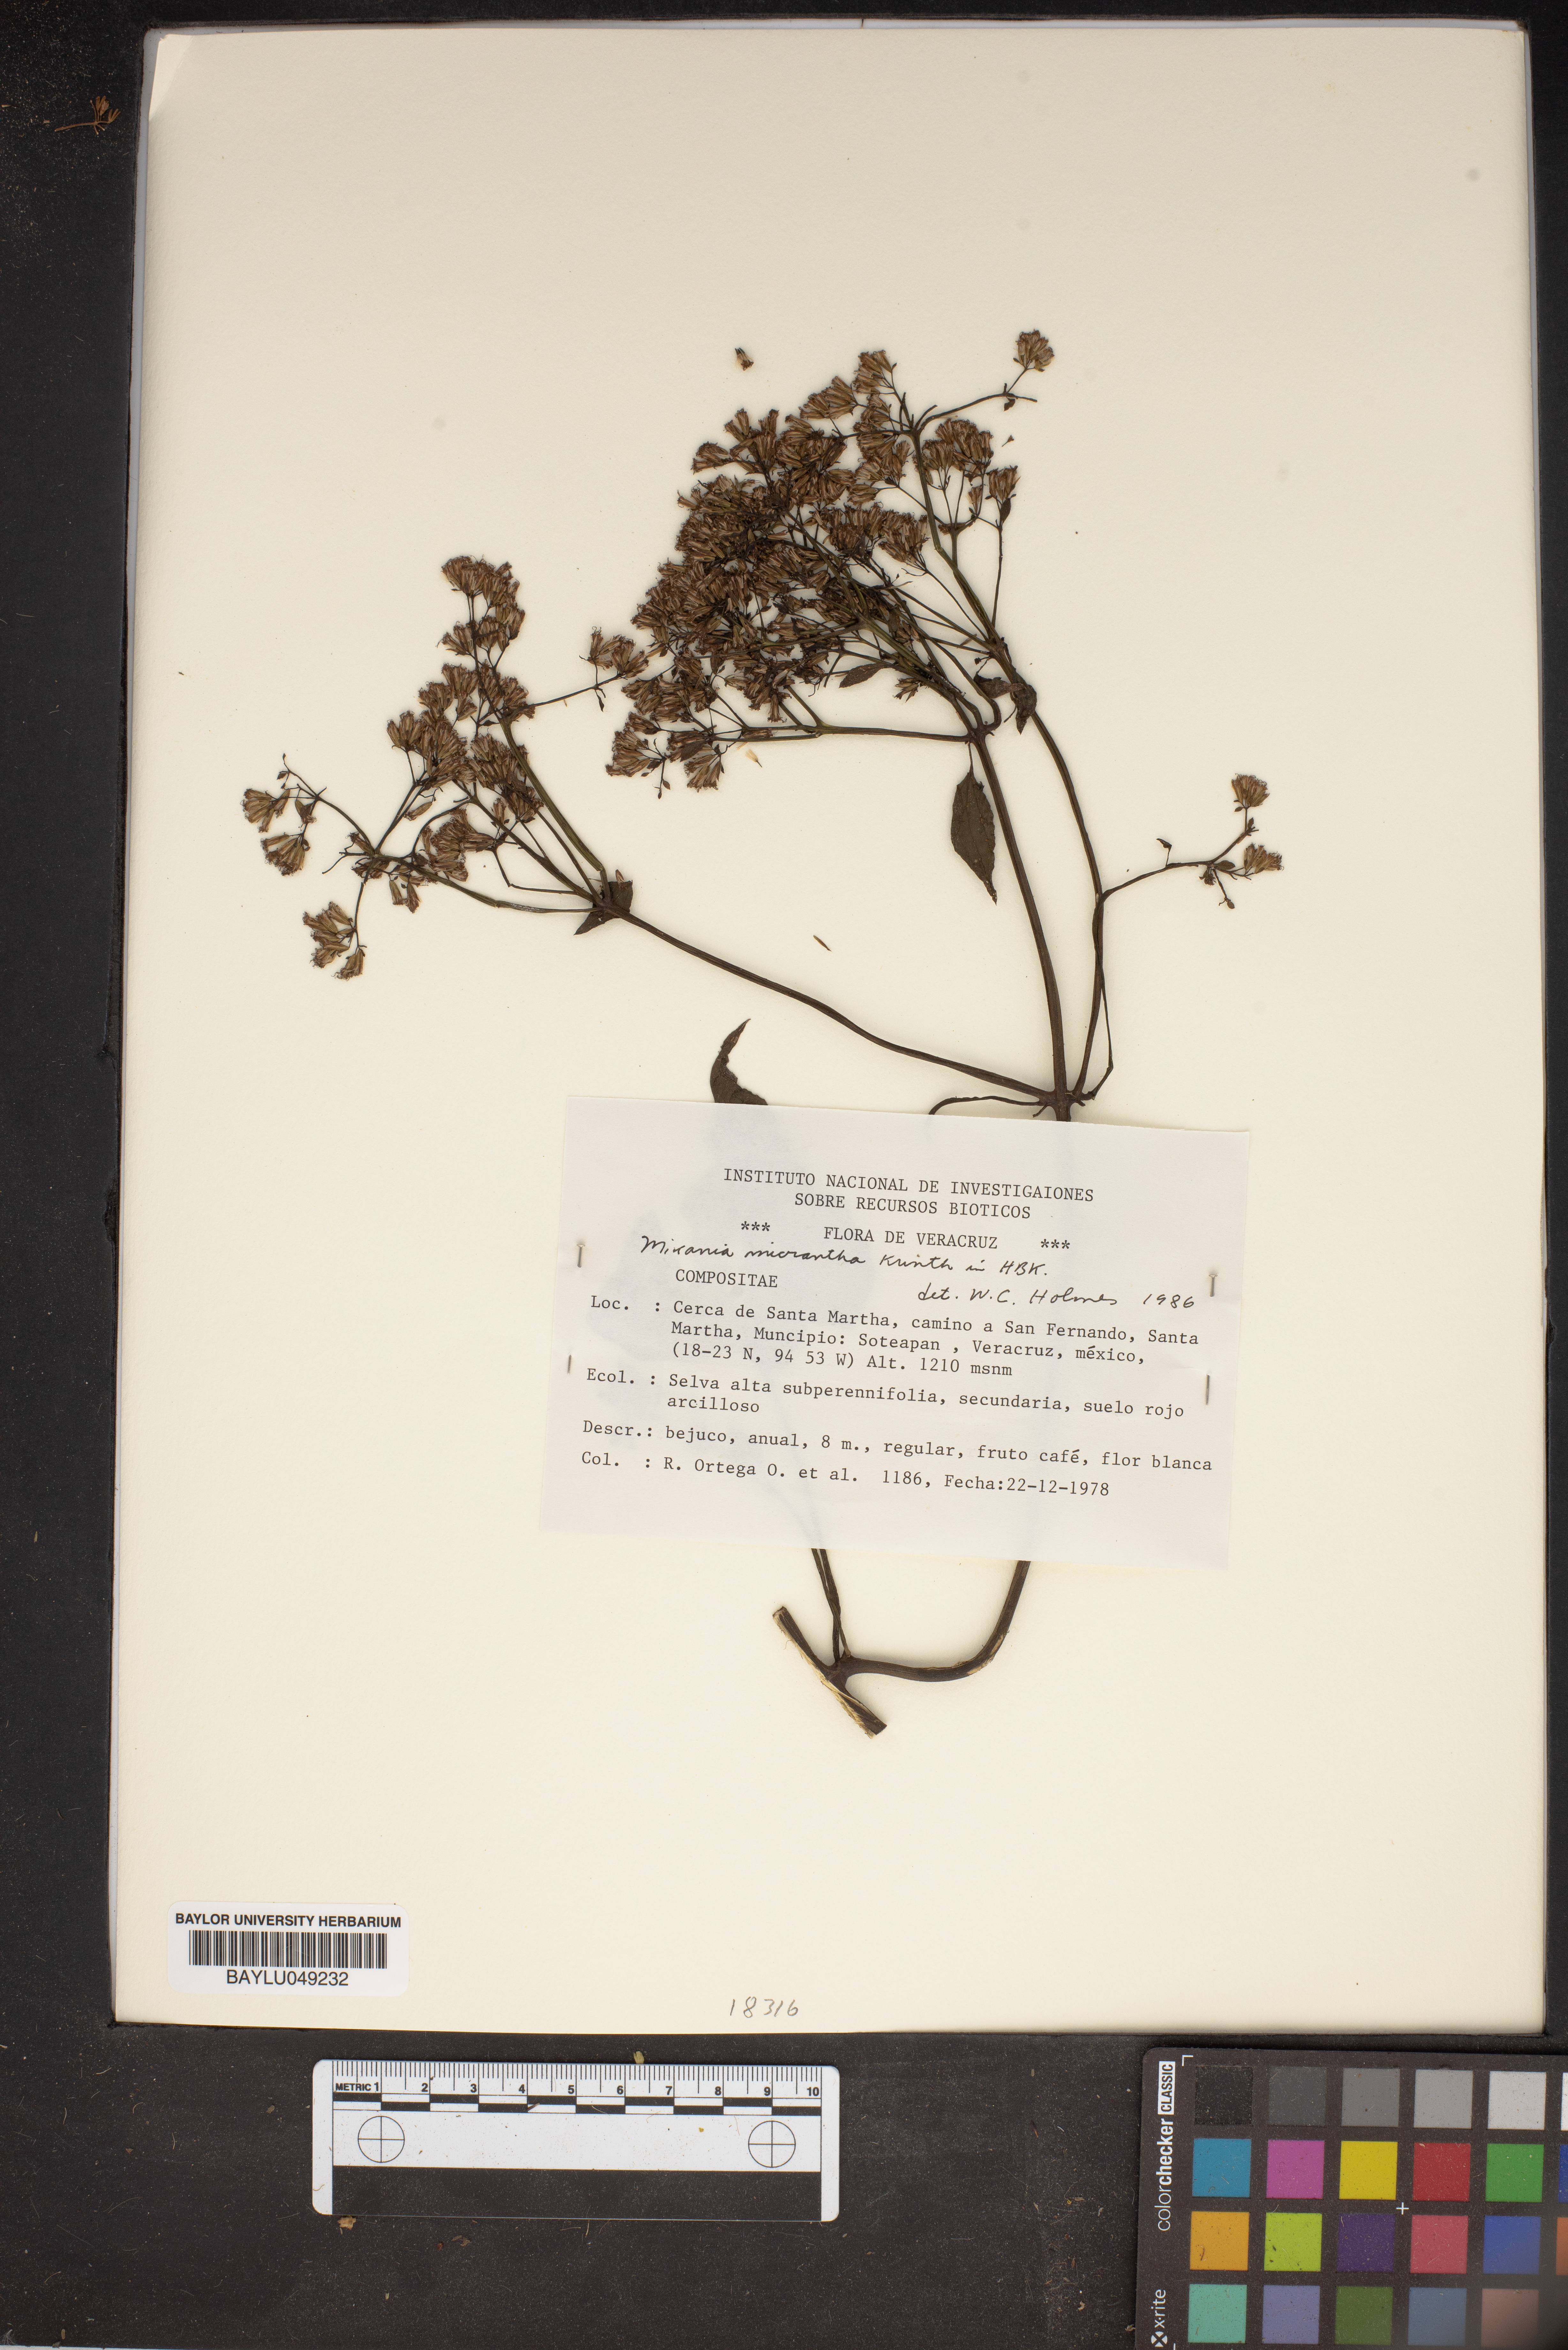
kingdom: Plantae
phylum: Tracheophyta
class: Magnoliopsida
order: Asterales
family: Asteraceae
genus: Mikania
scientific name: Mikania micrantha
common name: Mile-a-minute
